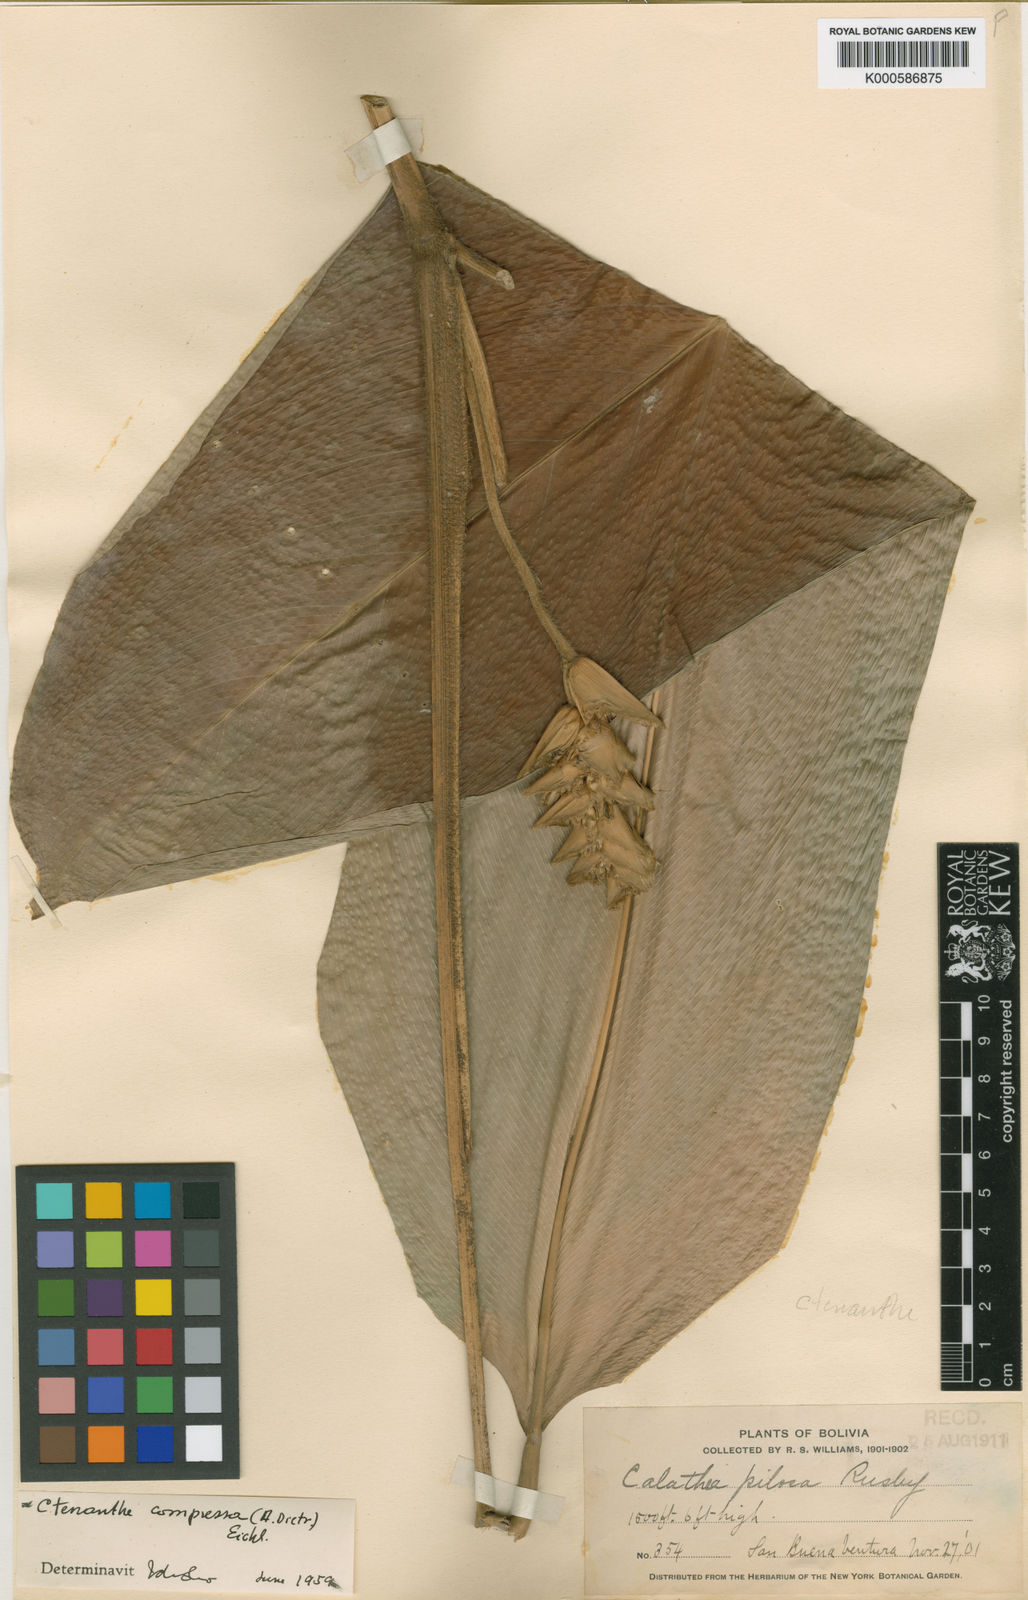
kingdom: Plantae
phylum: Tracheophyta
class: Liliopsida
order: Zingiberales
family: Marantaceae
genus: Ctenanthe
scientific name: Ctenanthe compressa
